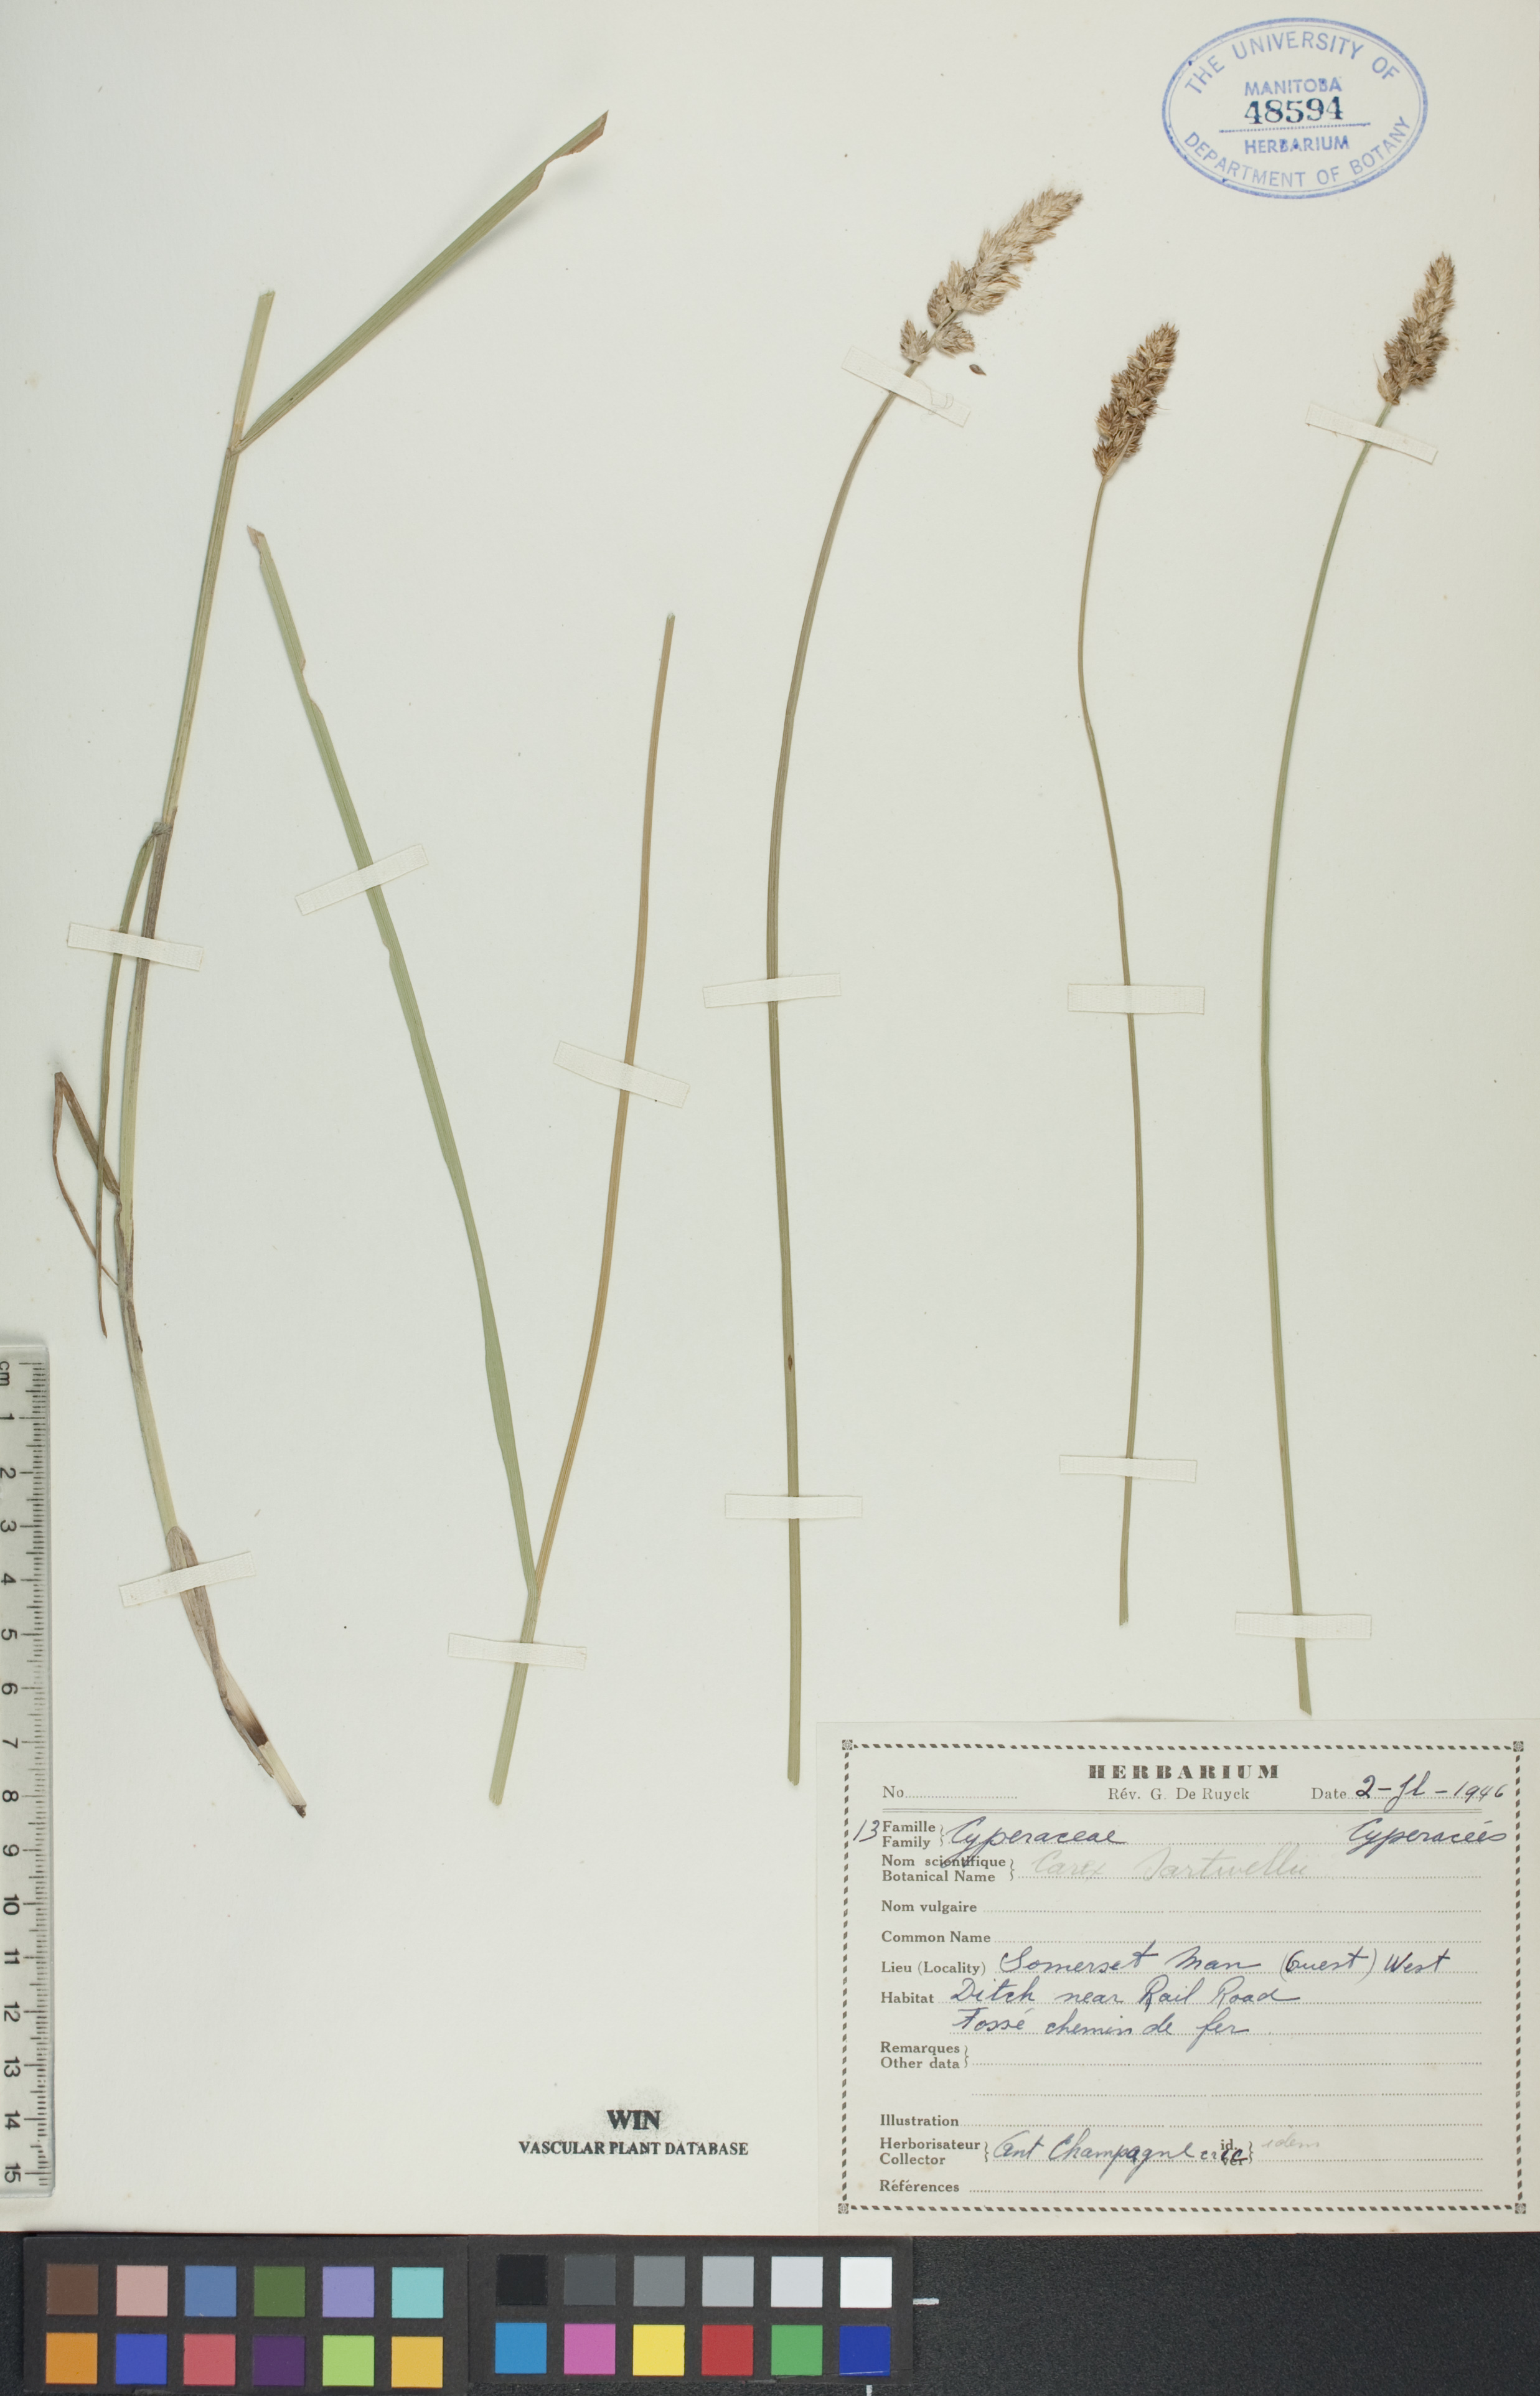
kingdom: Plantae
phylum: Tracheophyta
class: Liliopsida
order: Poales
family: Cyperaceae
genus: Carex
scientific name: Carex sartwellii
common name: Sartwell's sedge
